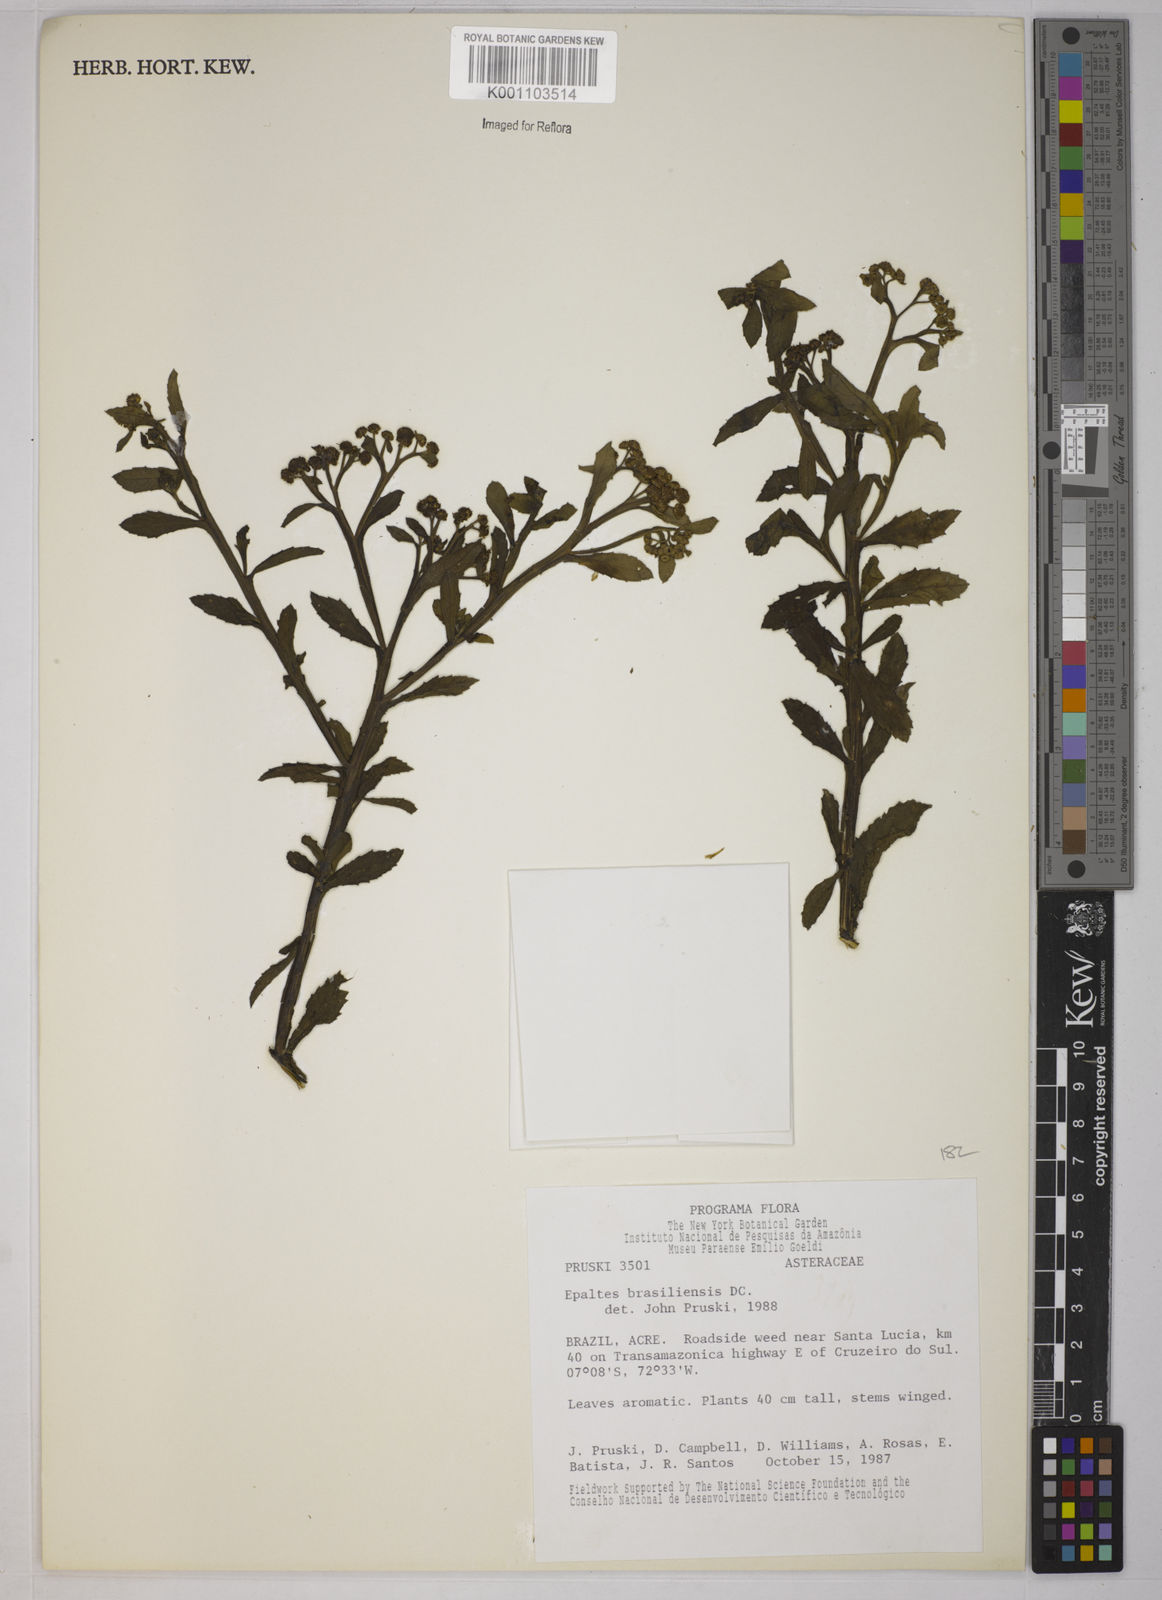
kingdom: Plantae
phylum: Tracheophyta
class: Magnoliopsida
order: Asterales
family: Asteraceae
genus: Epaltes
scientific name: Epaltes brasiliensis
